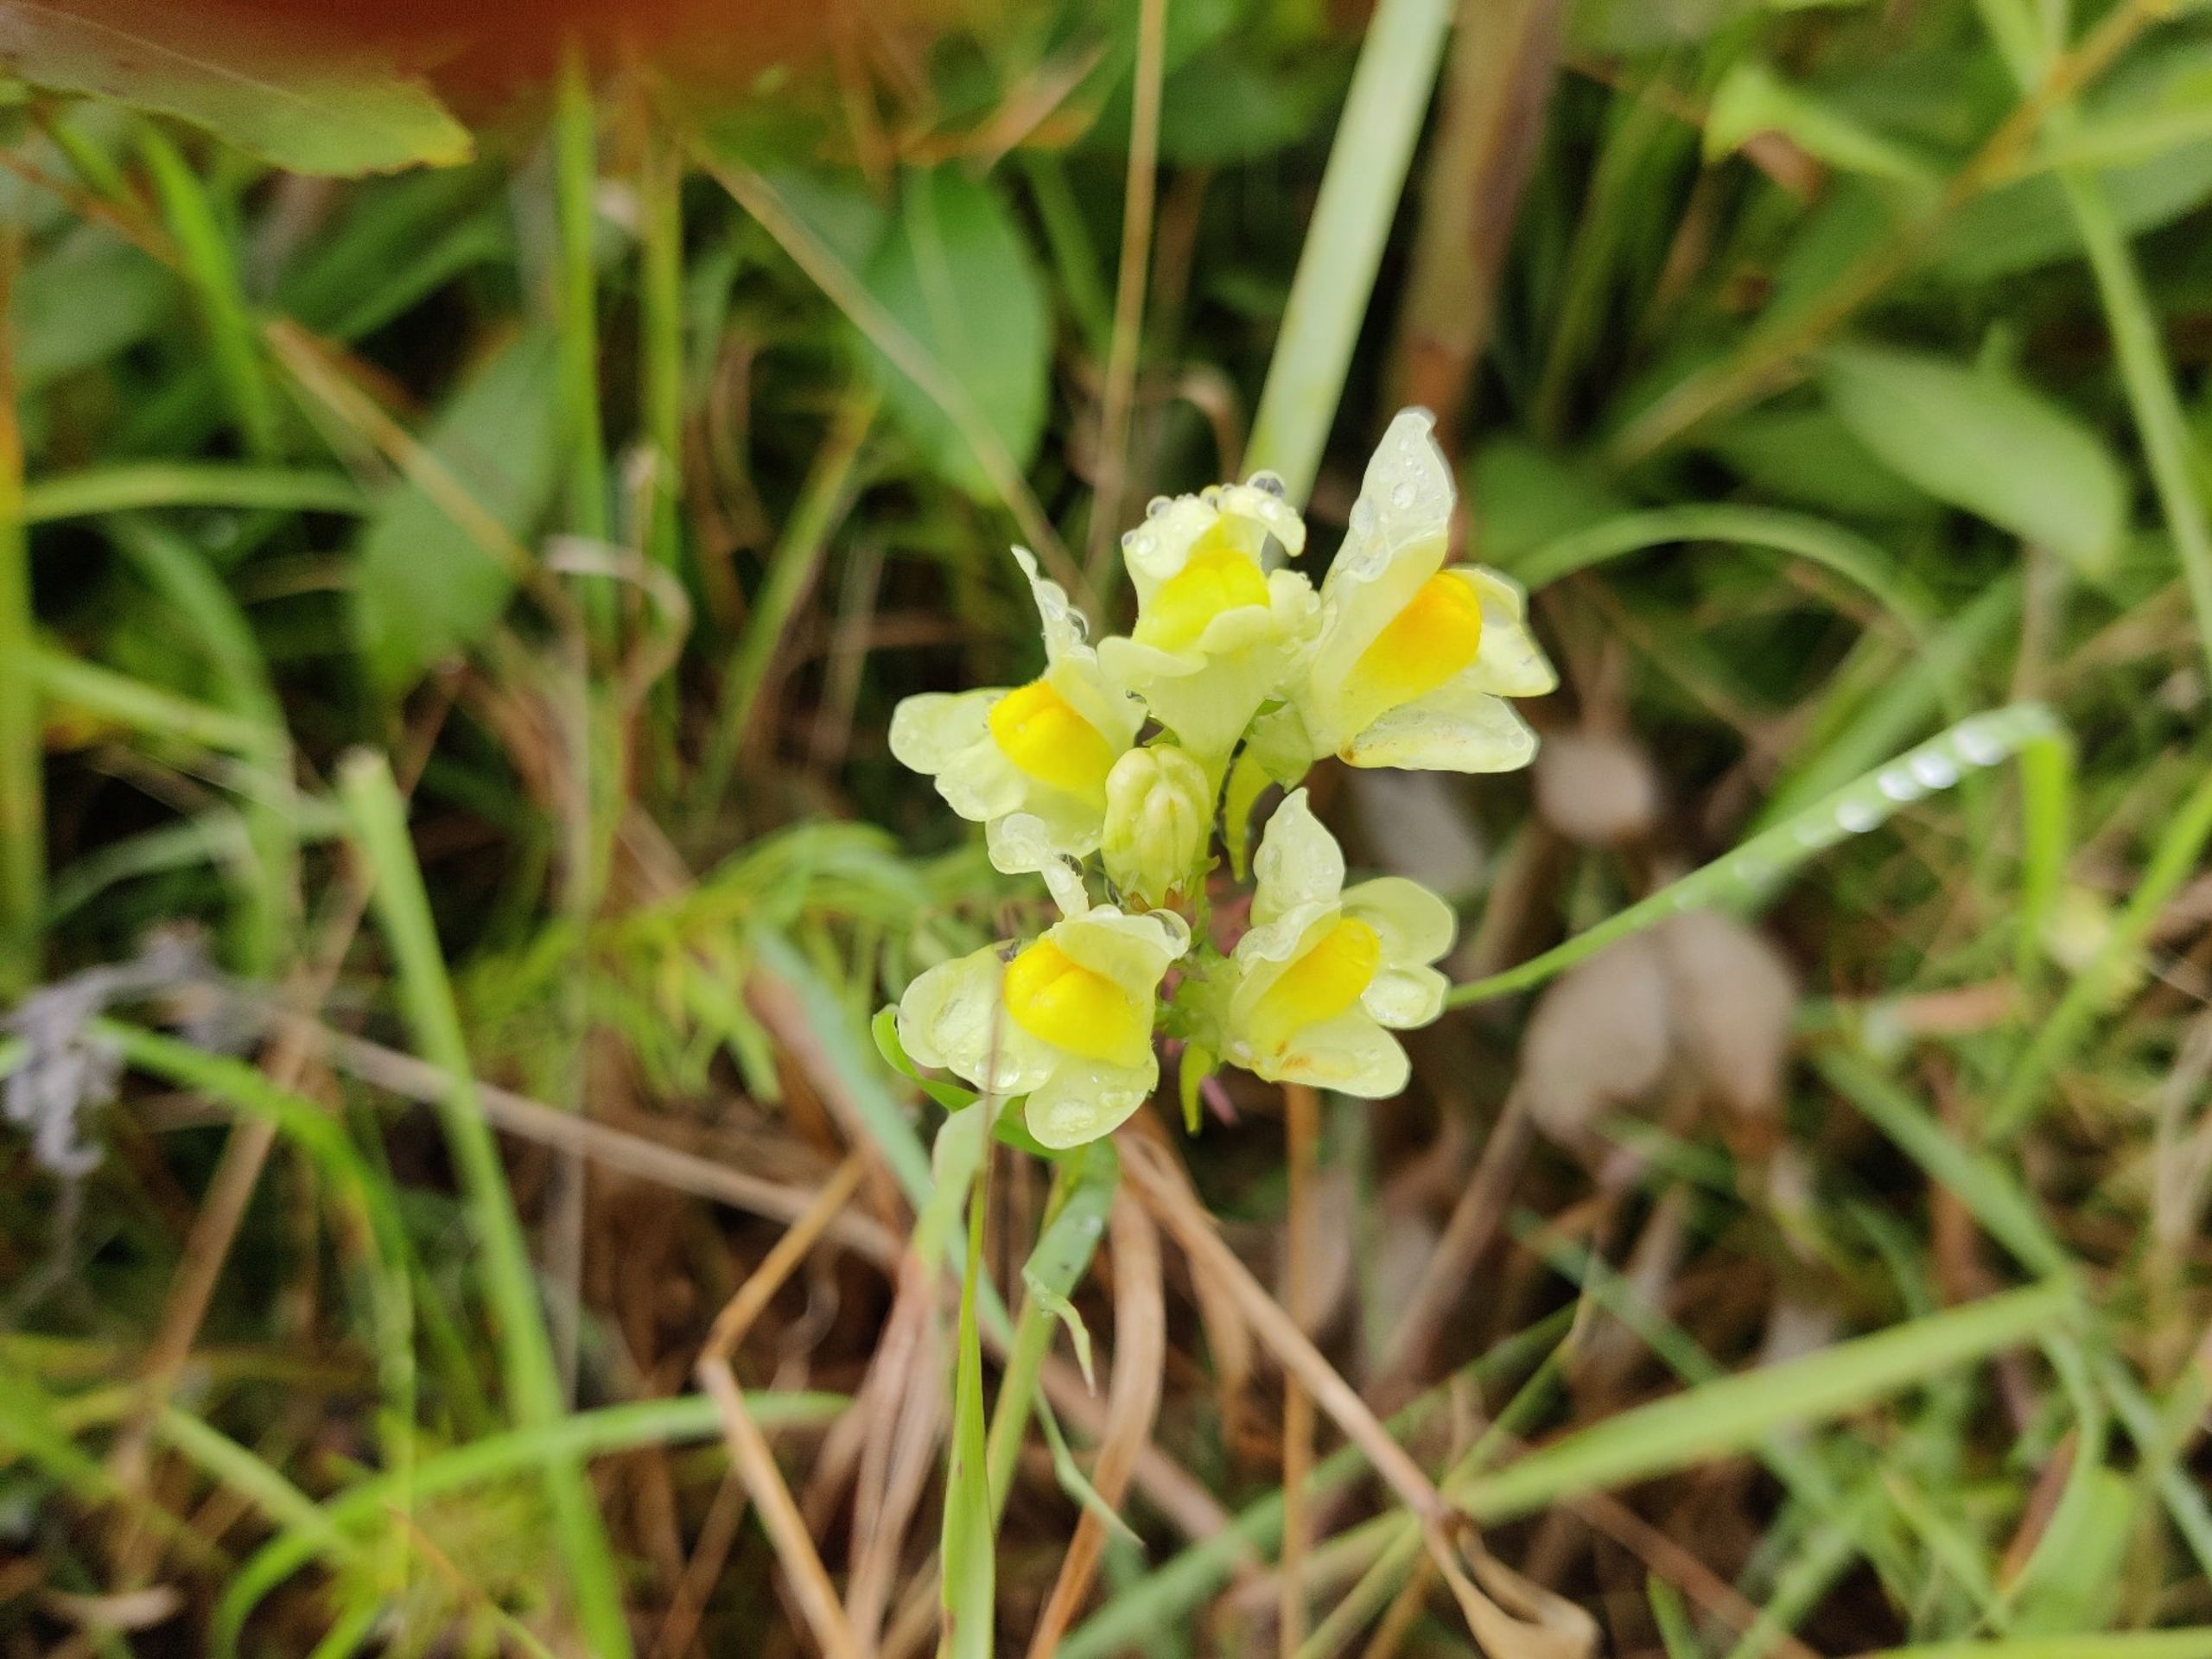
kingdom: Plantae
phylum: Tracheophyta
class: Magnoliopsida
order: Lamiales
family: Plantaginaceae
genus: Linaria
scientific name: Linaria vulgaris
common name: Almindelig torskemund
